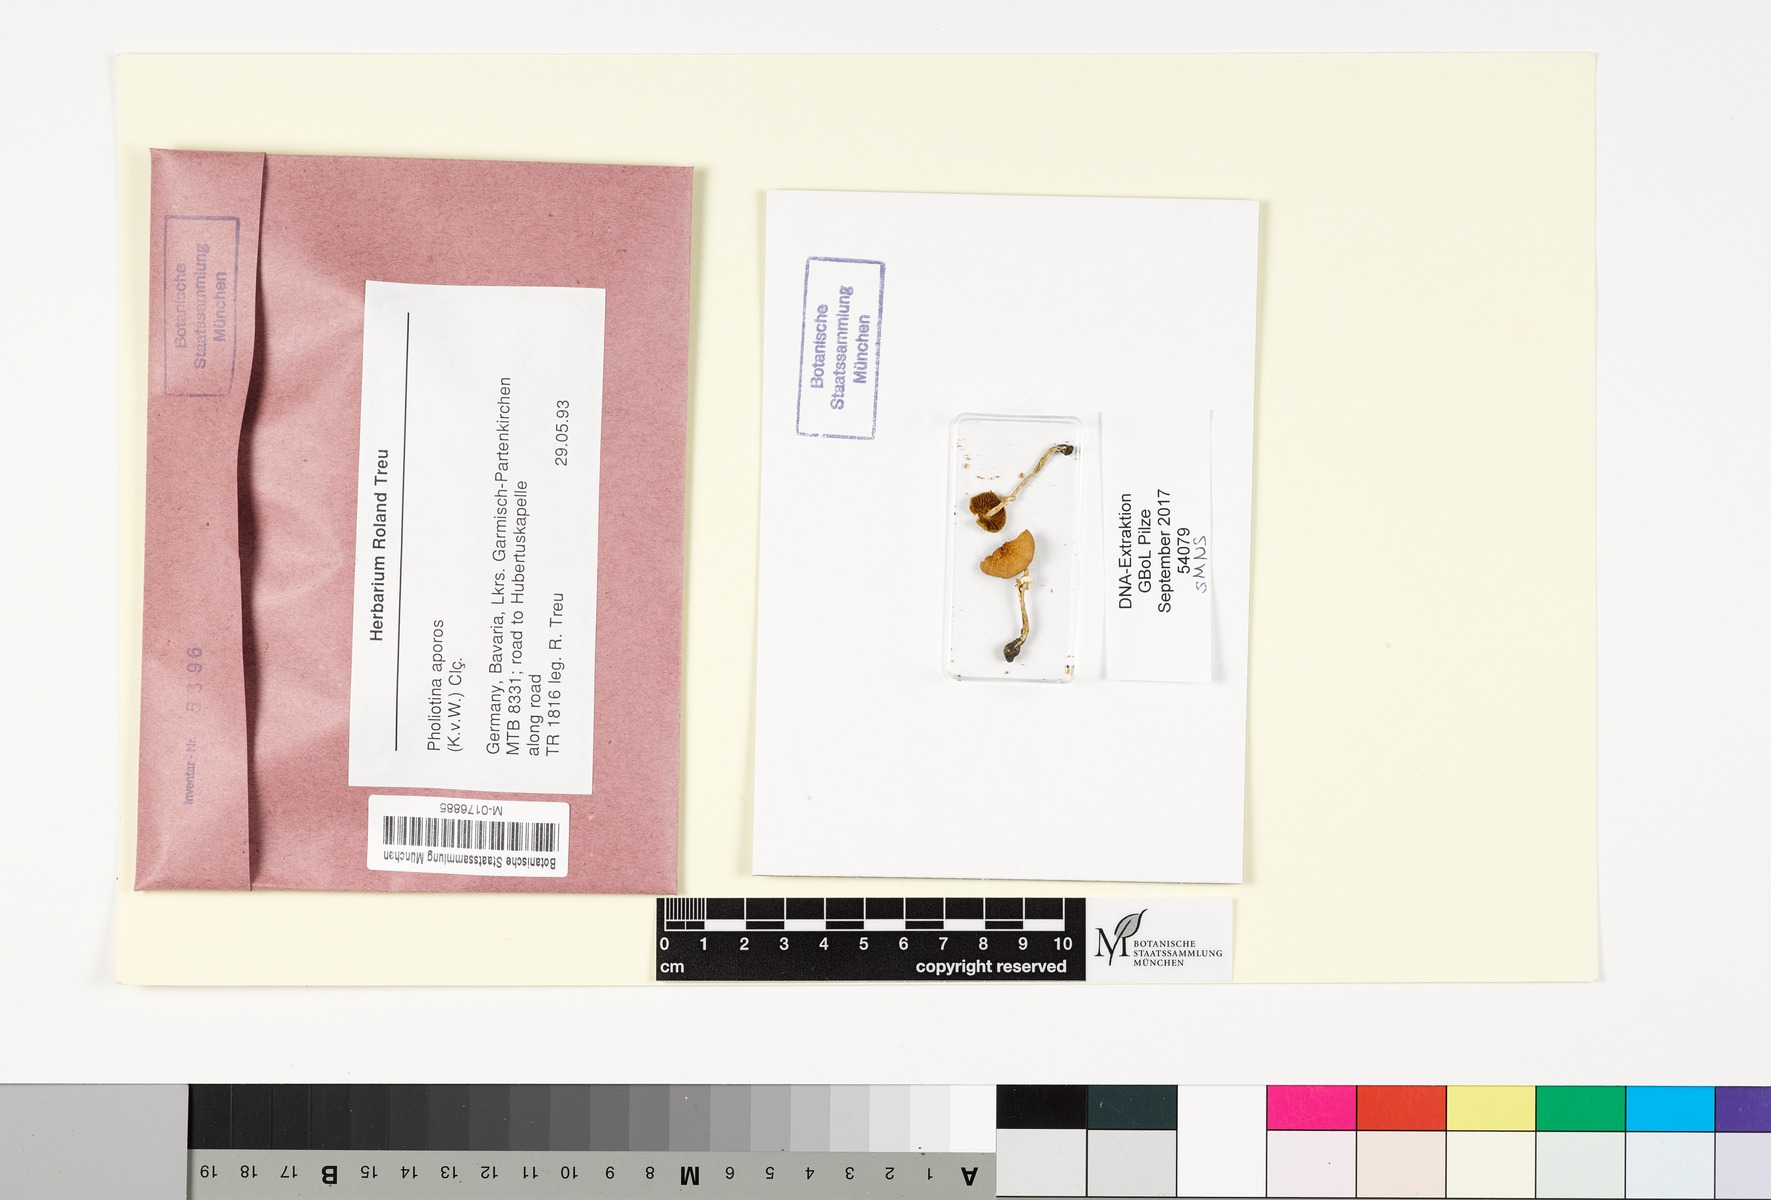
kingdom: Fungi
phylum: Basidiomycota
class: Agaricomycetes
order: Agaricales
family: Bolbitiaceae
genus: Conocybe
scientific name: Conocybe aporos
